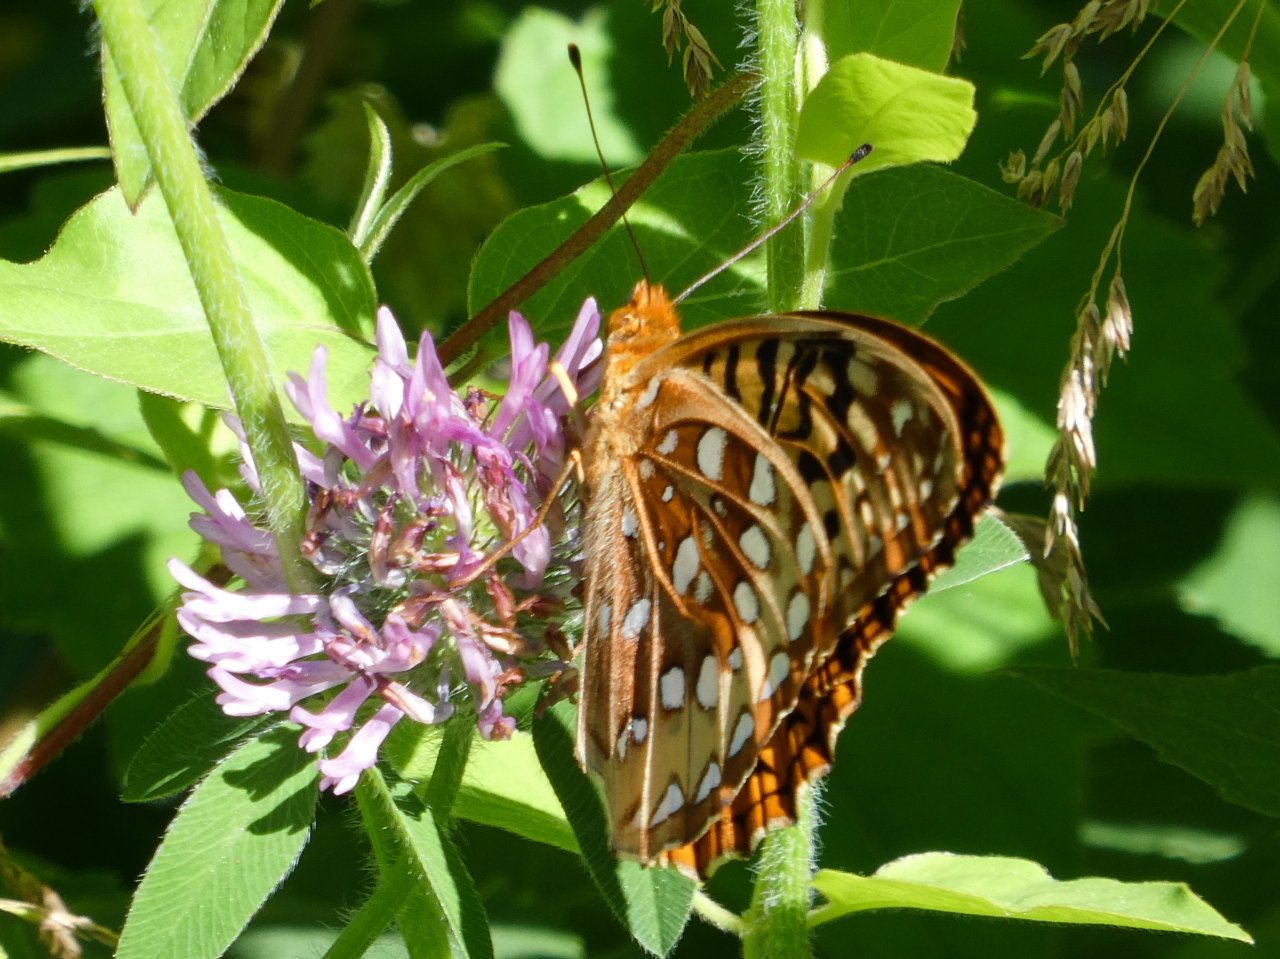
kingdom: Animalia
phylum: Arthropoda
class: Insecta
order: Lepidoptera
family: Nymphalidae
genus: Speyeria
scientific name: Speyeria cybele
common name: Great Spangled Fritillary
